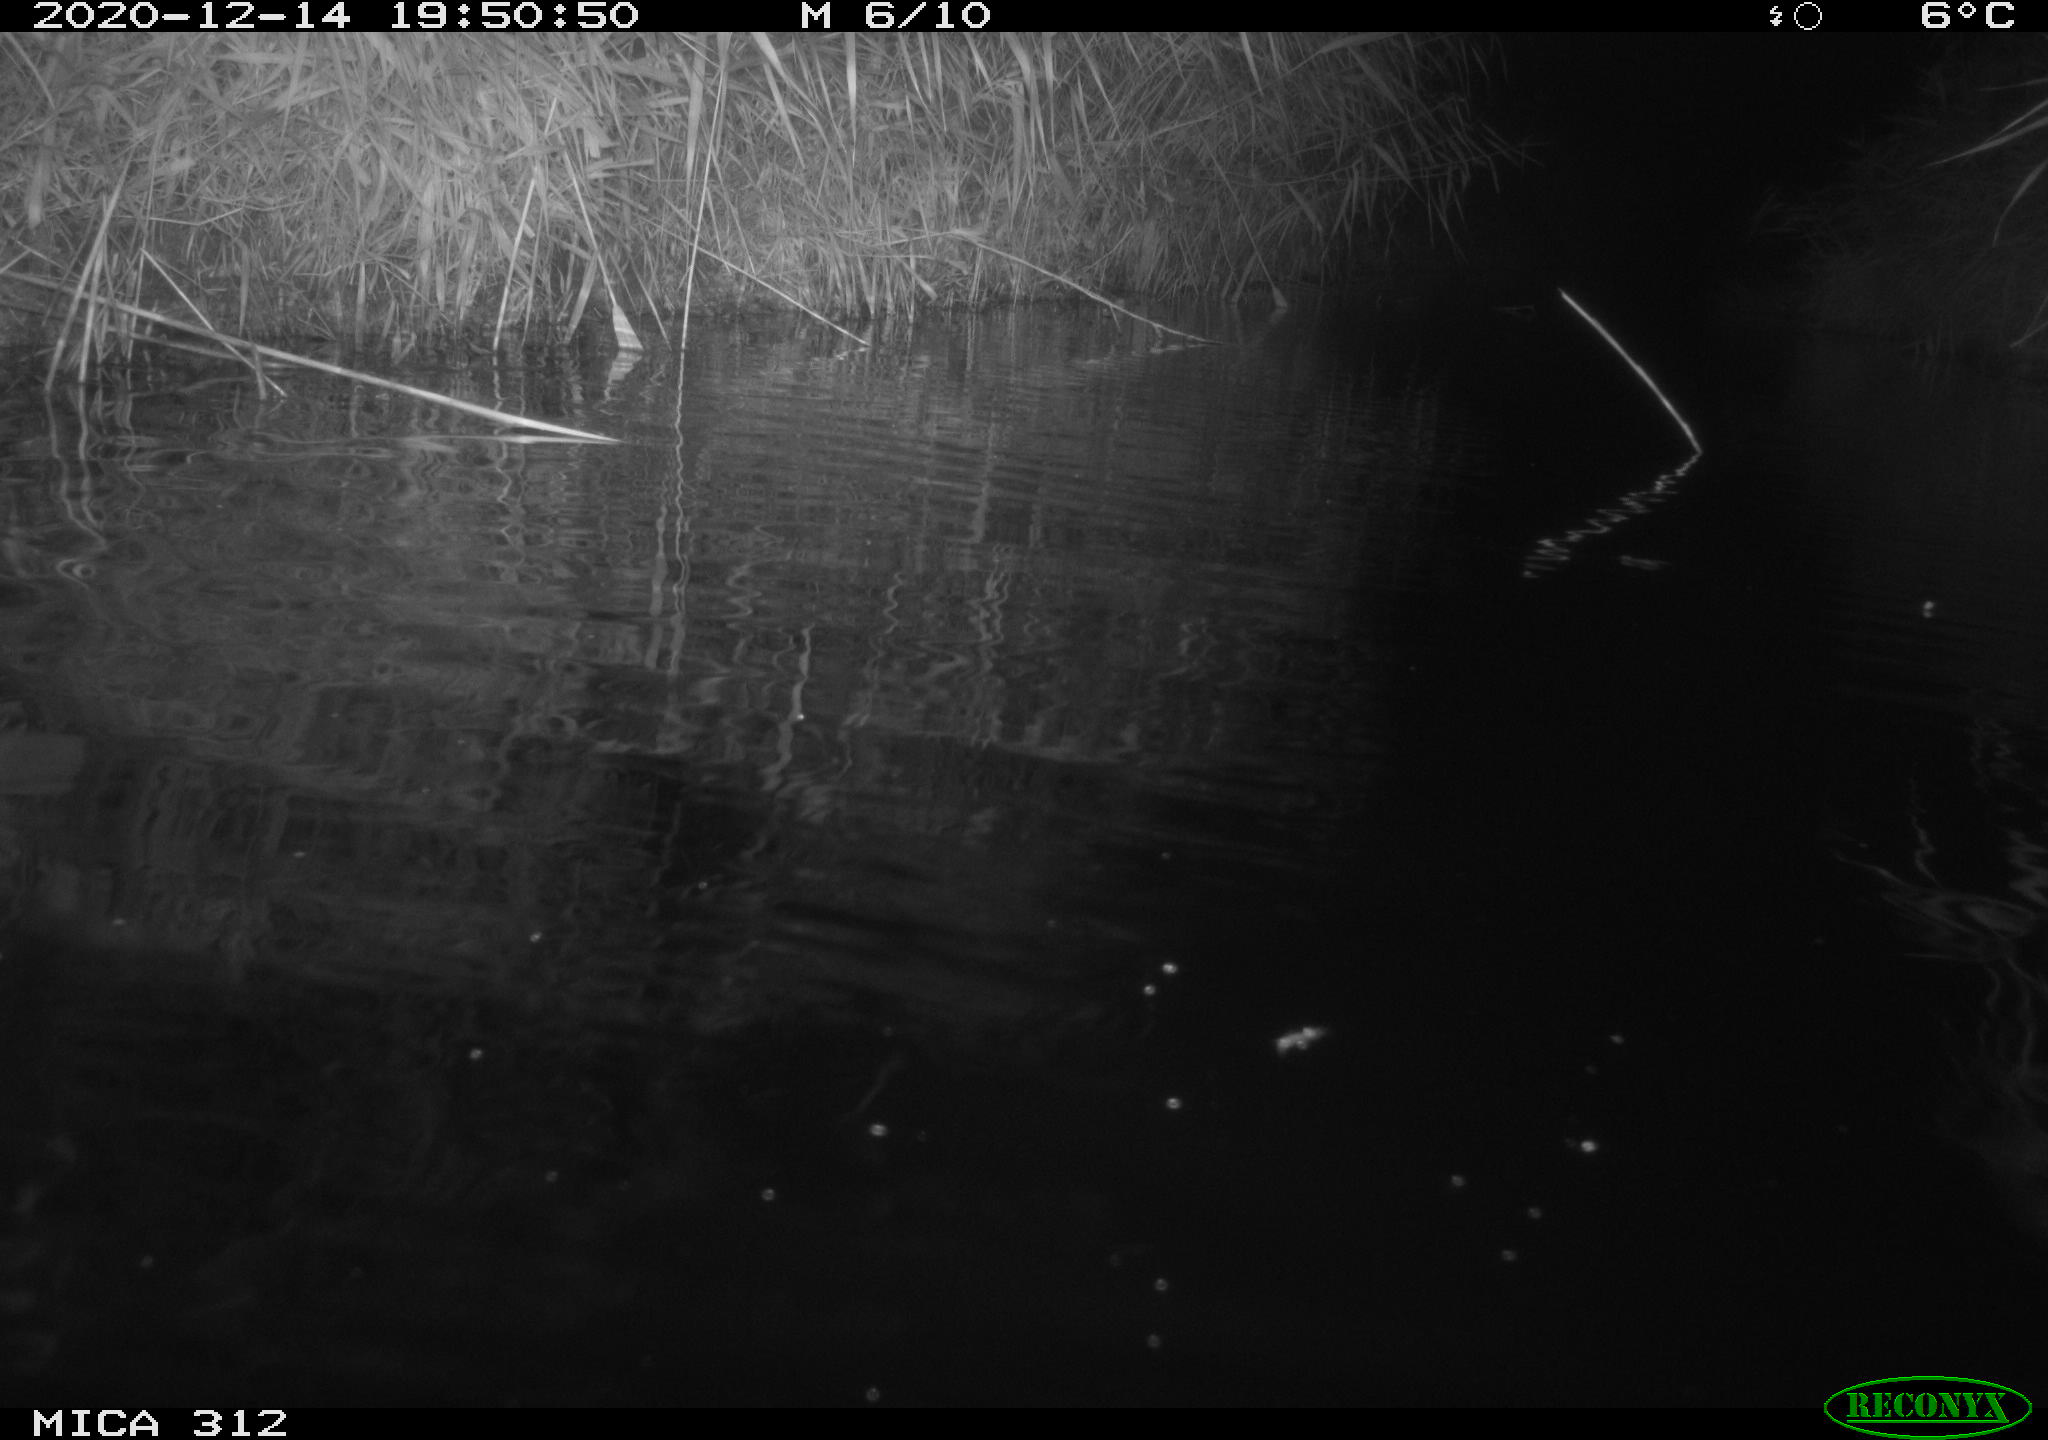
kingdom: Animalia
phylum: Chordata
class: Mammalia
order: Rodentia
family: Muridae
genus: Rattus
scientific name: Rattus norvegicus
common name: Brown rat
